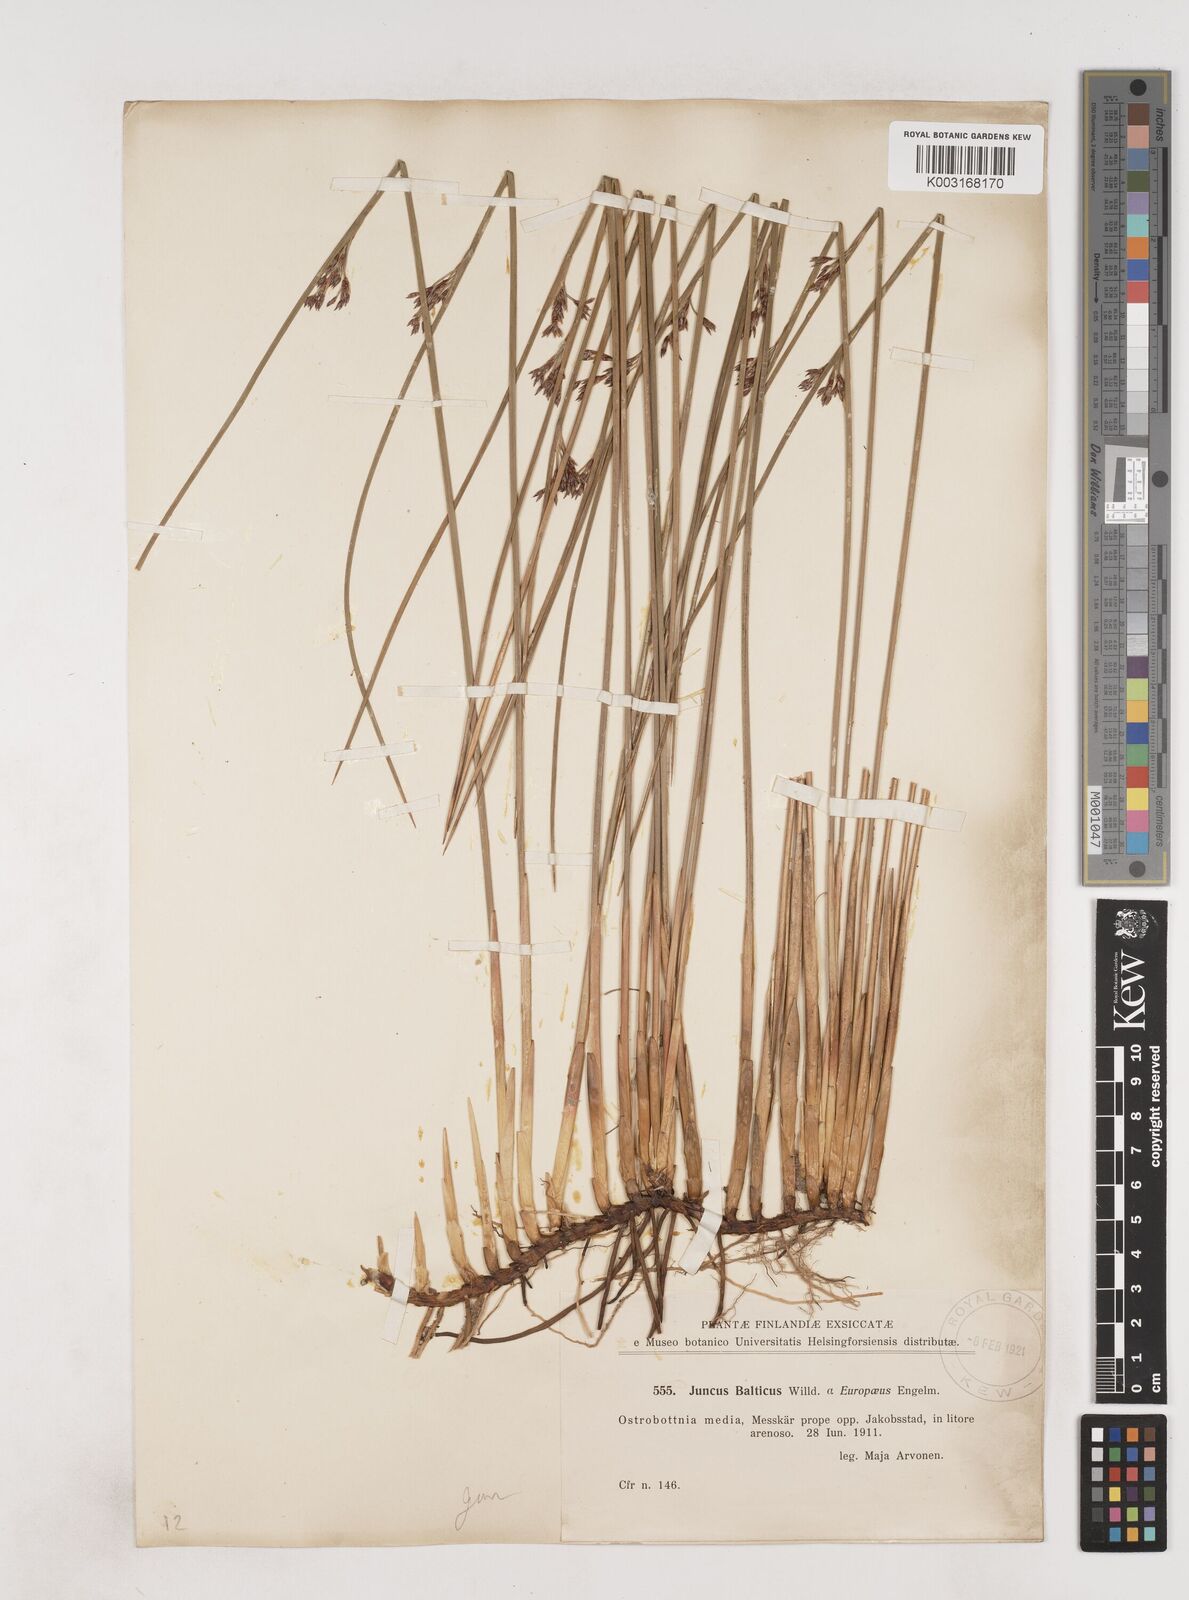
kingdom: Plantae
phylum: Tracheophyta
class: Liliopsida
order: Poales
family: Juncaceae
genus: Juncus
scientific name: Juncus balticus
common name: Baltic rush
